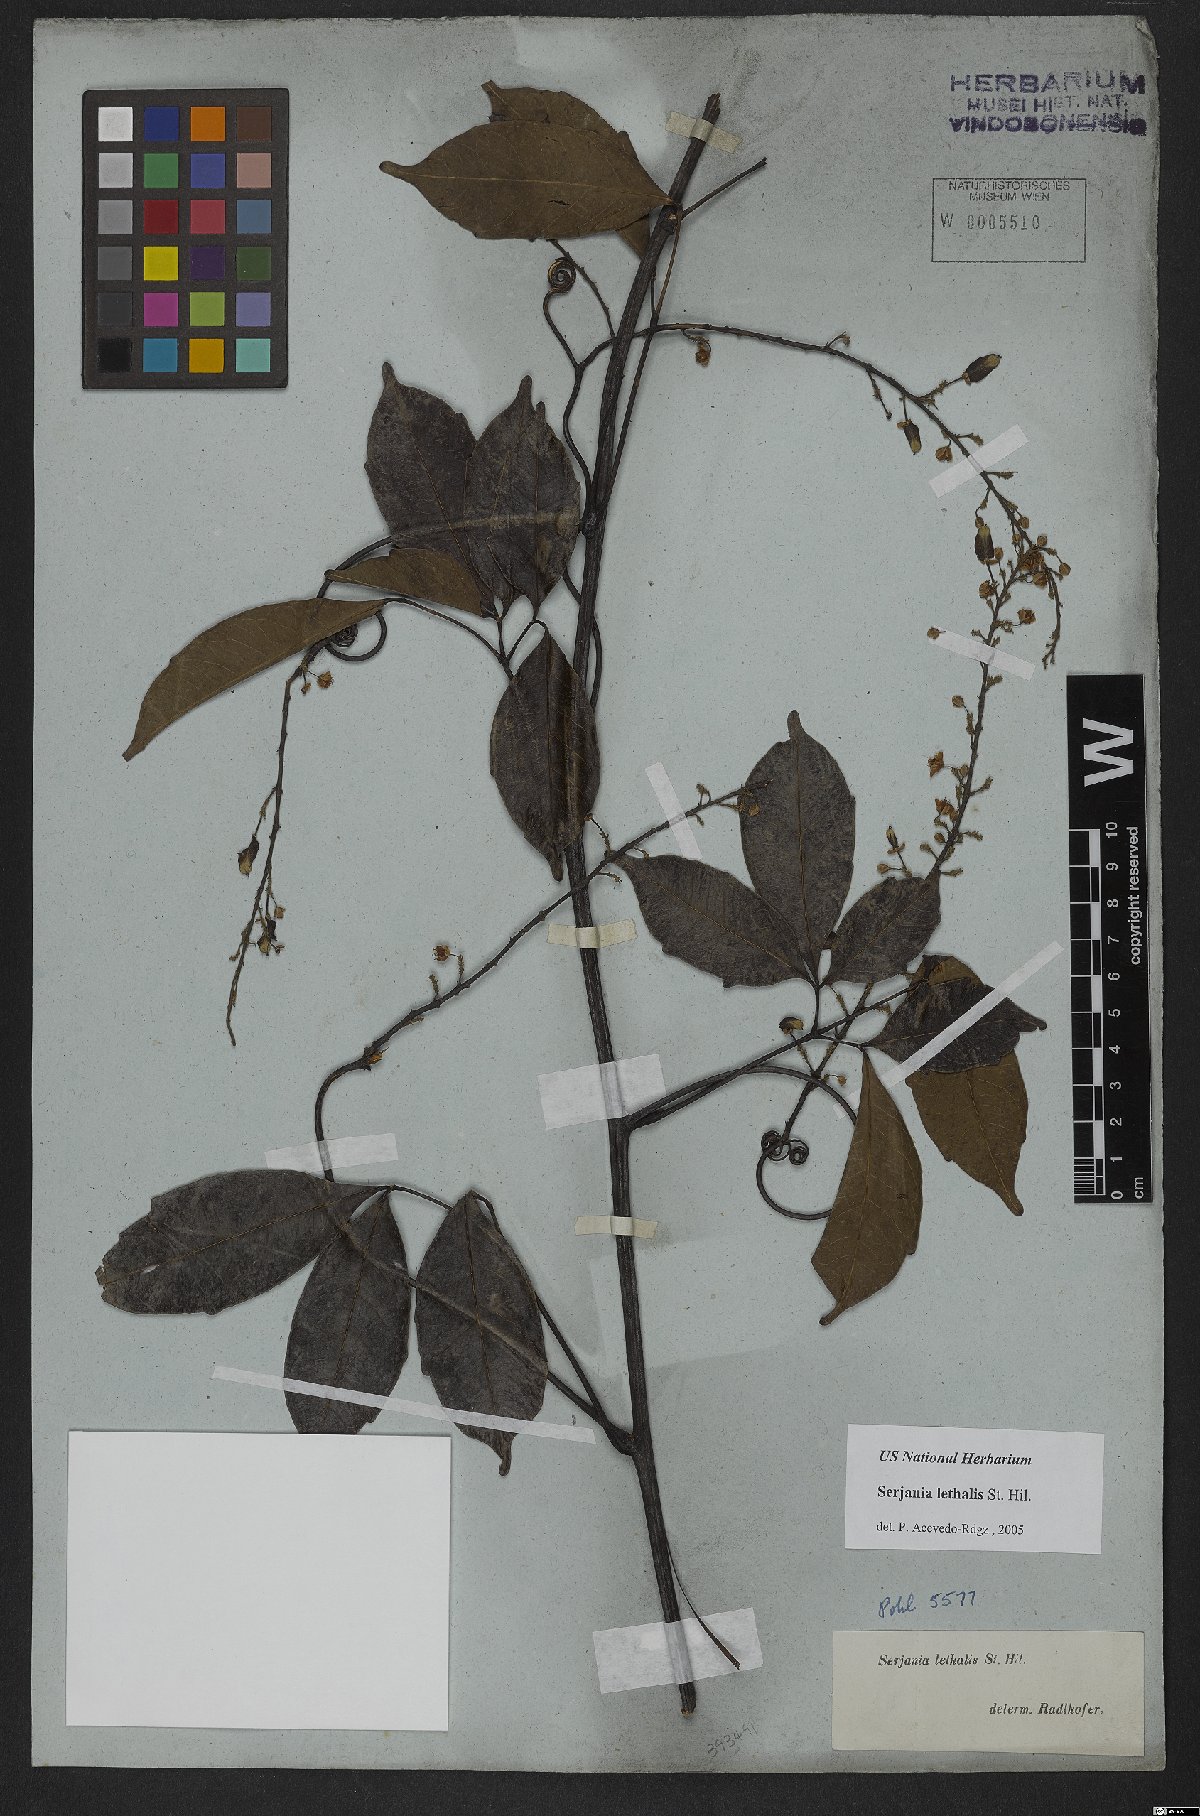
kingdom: Plantae
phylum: Tracheophyta
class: Magnoliopsida
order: Sapindales
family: Sapindaceae
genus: Serjania
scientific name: Serjania lethalis
